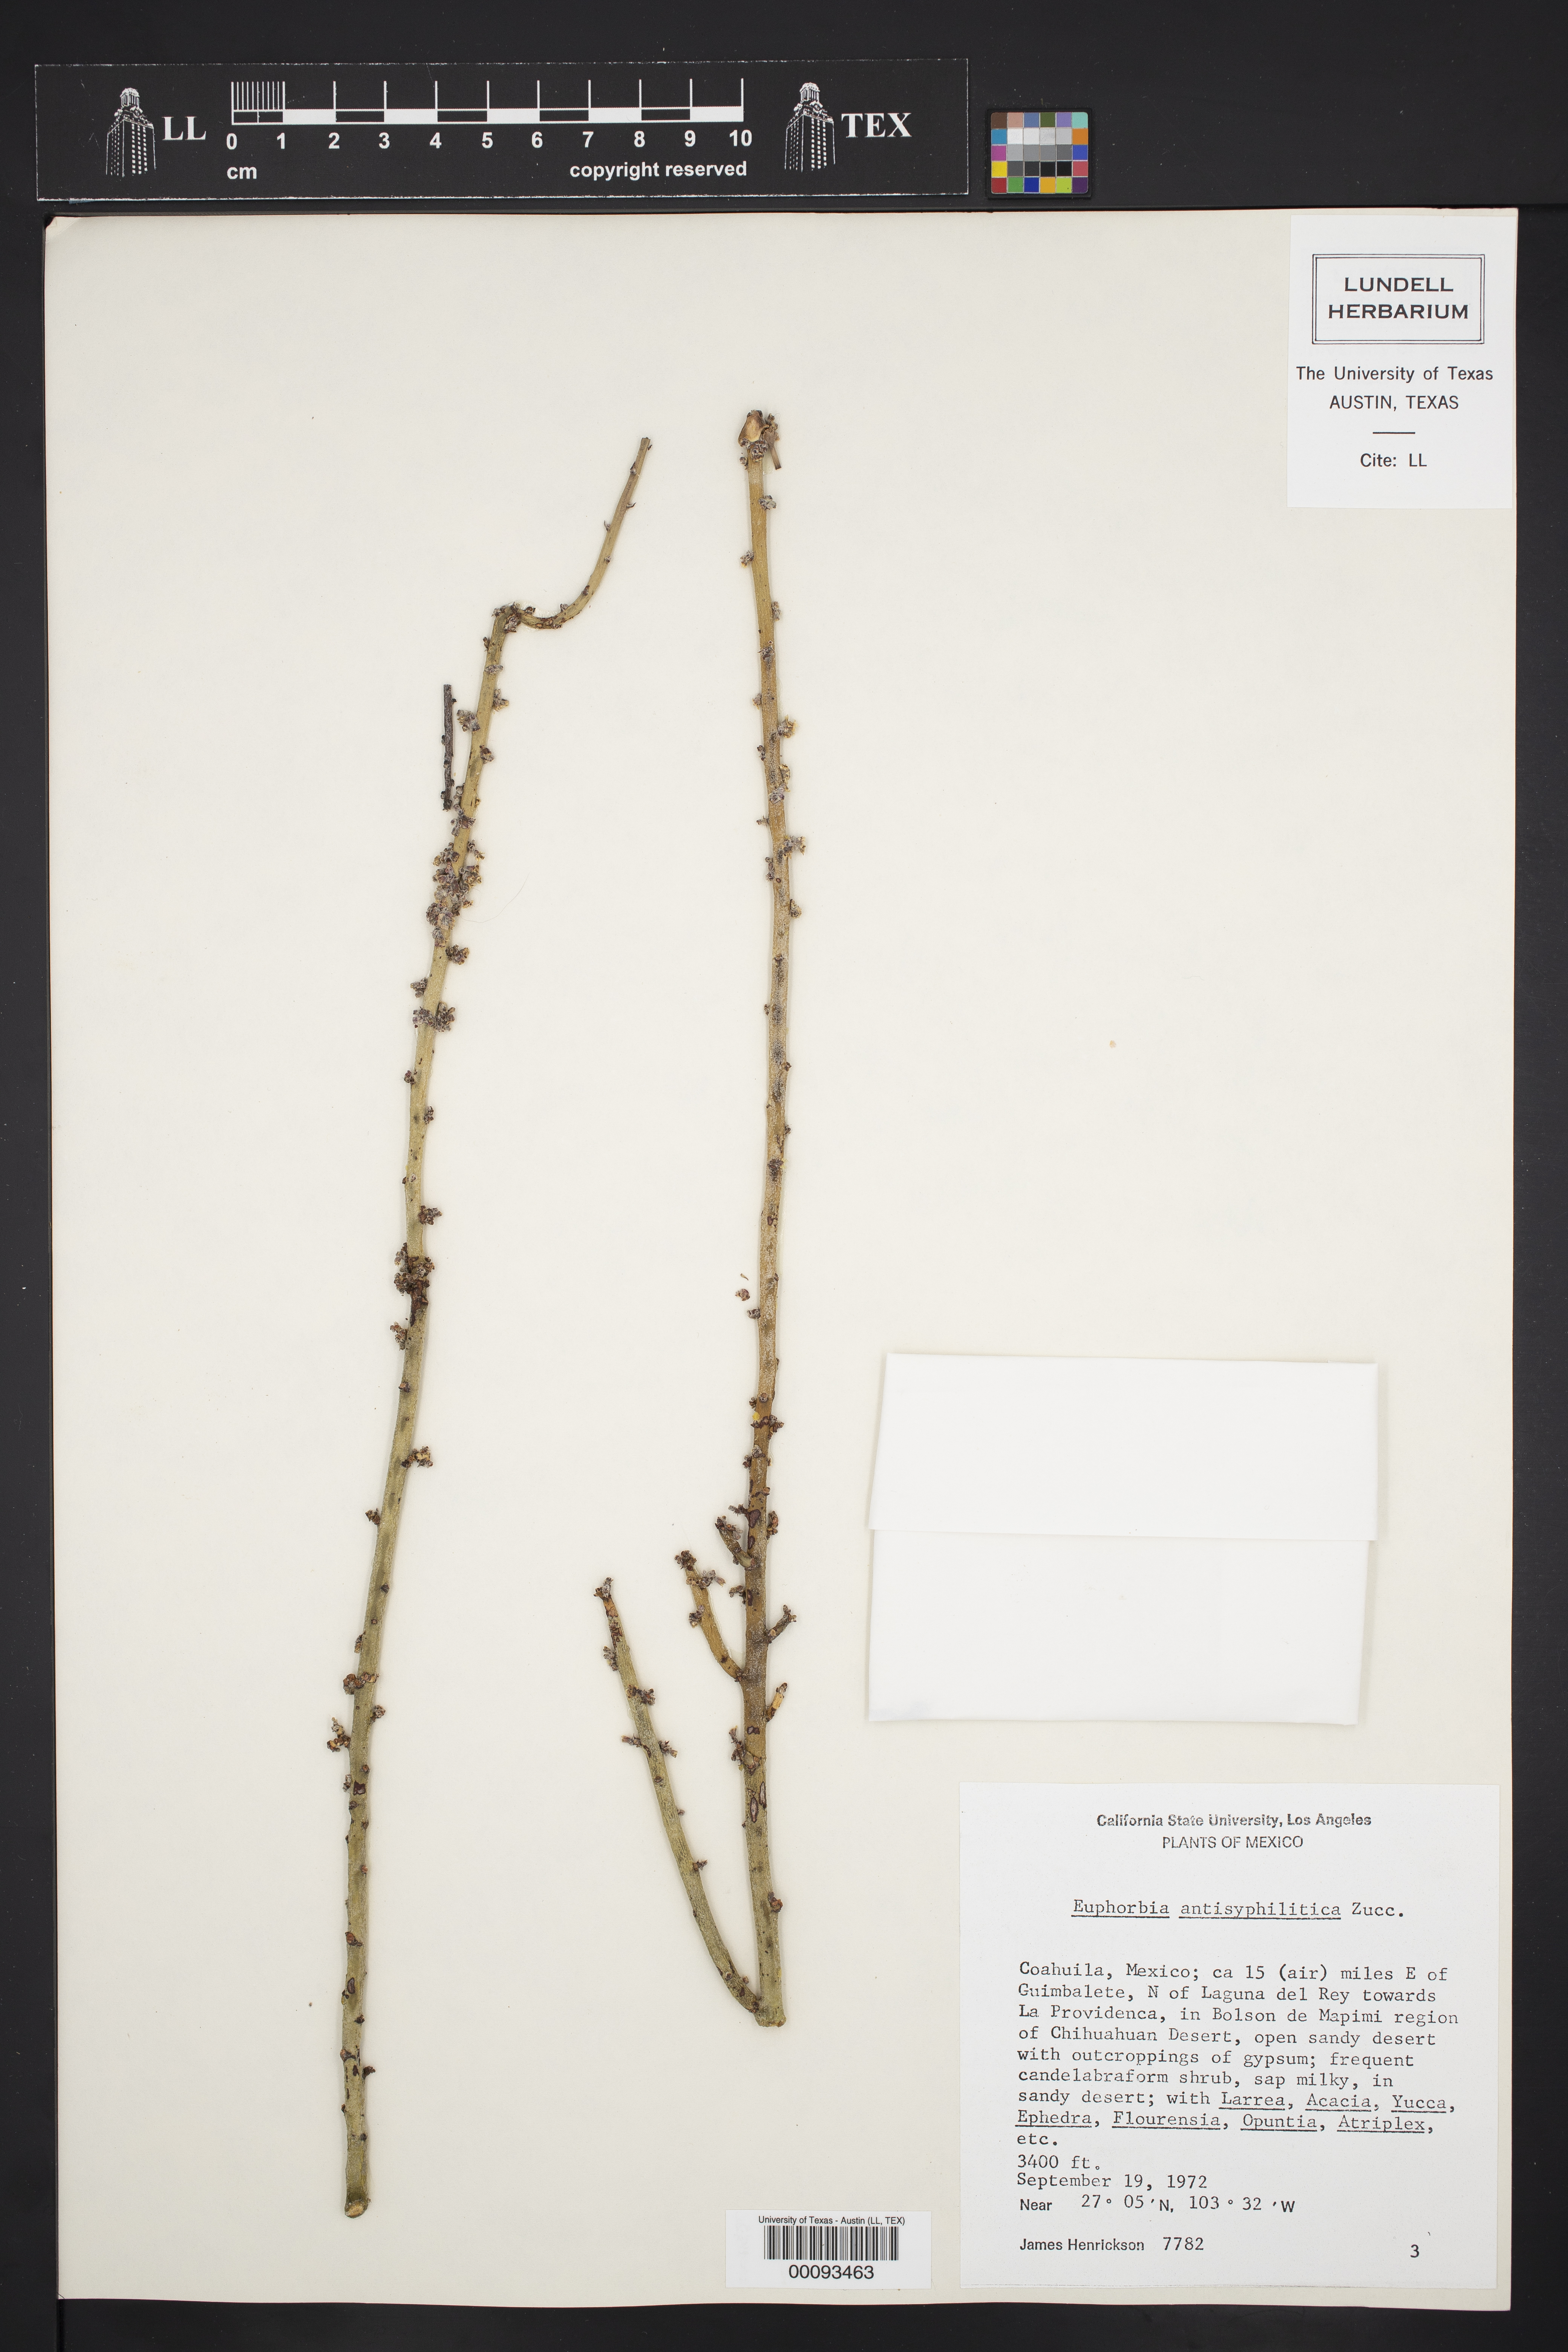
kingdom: Plantae
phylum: Tracheophyta
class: Magnoliopsida
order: Malpighiales
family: Euphorbiaceae
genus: Euphorbia
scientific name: Euphorbia antisyphilitica
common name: Candelilla
